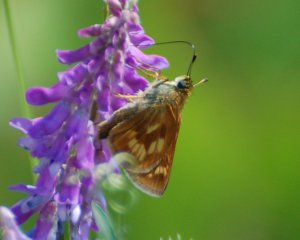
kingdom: Animalia
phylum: Arthropoda
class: Insecta
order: Lepidoptera
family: Hesperiidae
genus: Polites
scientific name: Polites
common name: Long Dash Skipper
